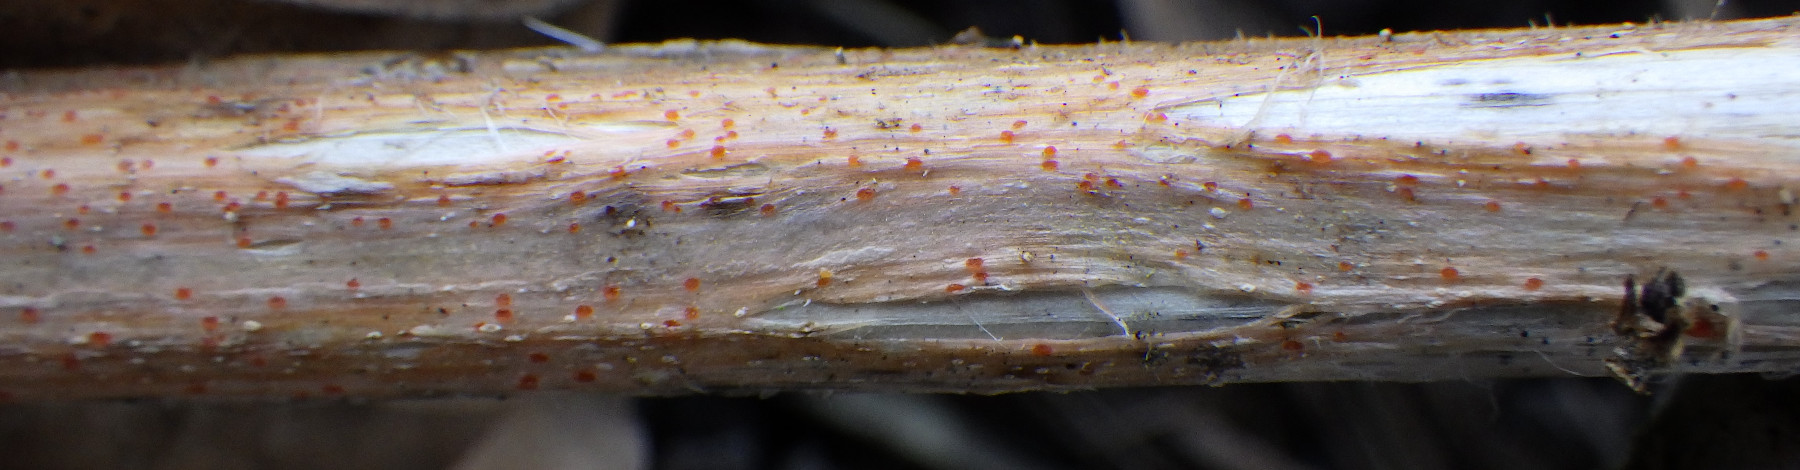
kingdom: Fungi
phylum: Ascomycota
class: Leotiomycetes
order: Helotiales
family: Calloriaceae
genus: Calloria
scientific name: Calloria urticae
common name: nælde-orangeskive
